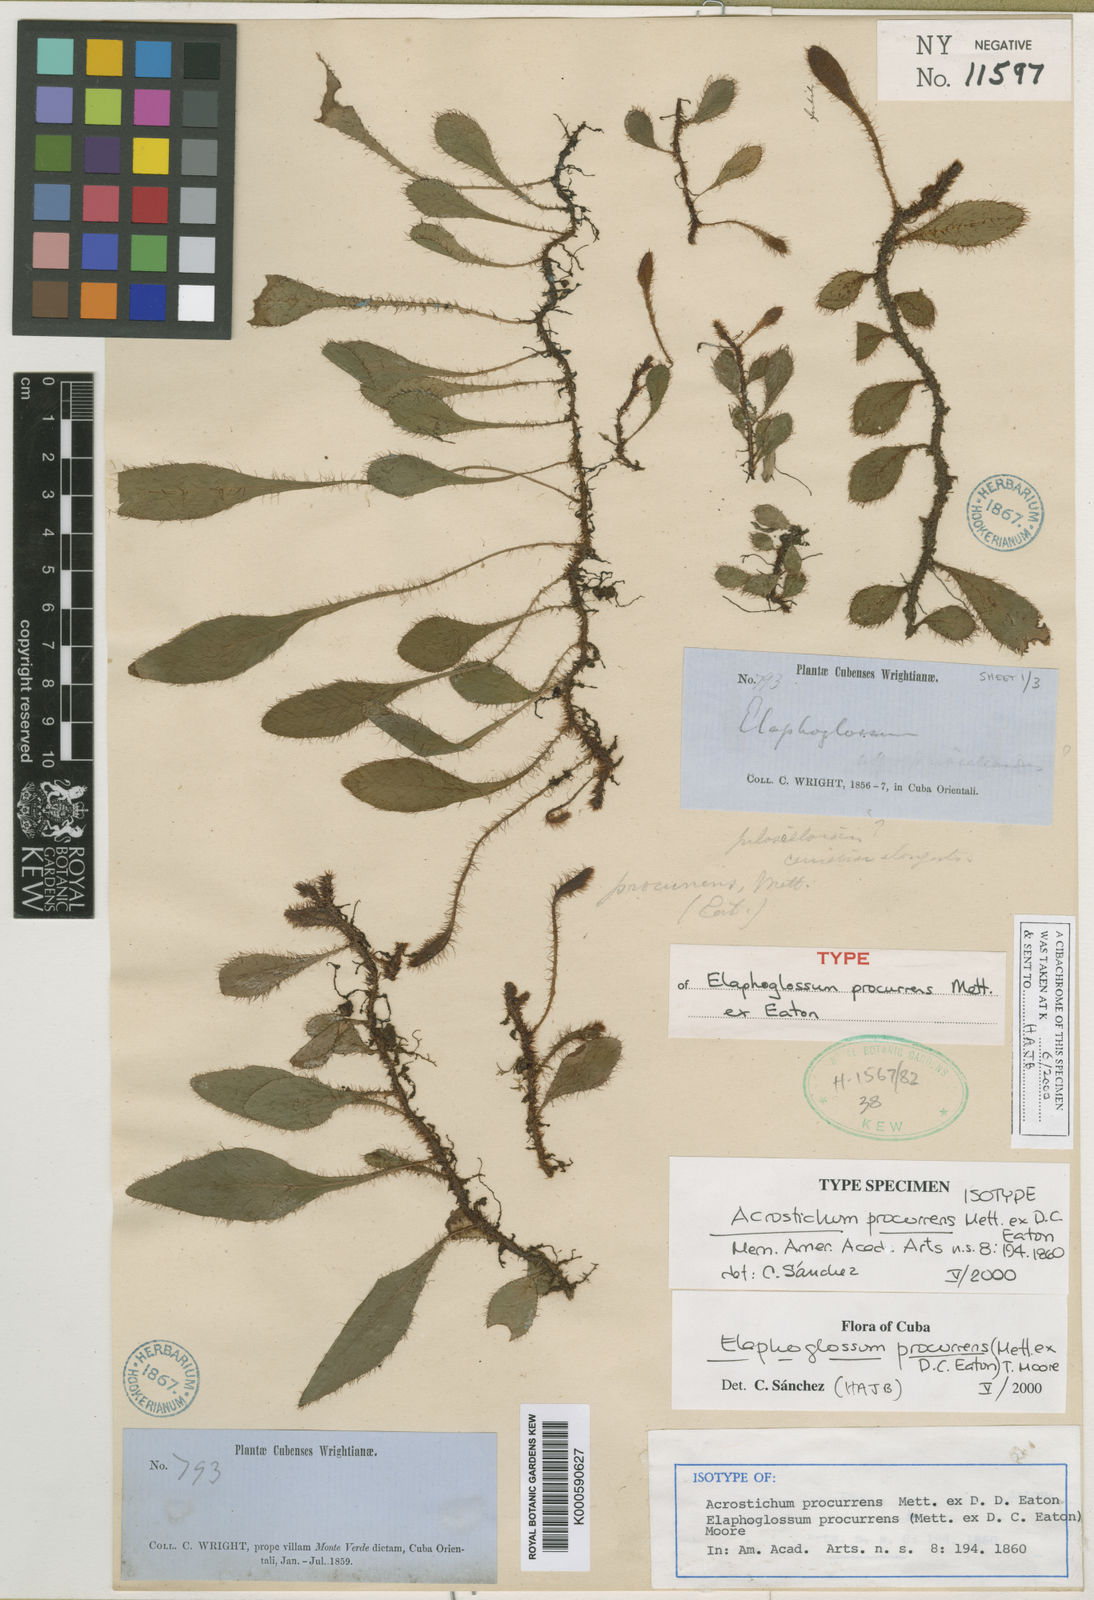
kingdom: Plantae
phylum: Tracheophyta
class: Polypodiopsida
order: Polypodiales
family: Dryopteridaceae
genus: Elaphoglossum
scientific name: Elaphoglossum procurrens
